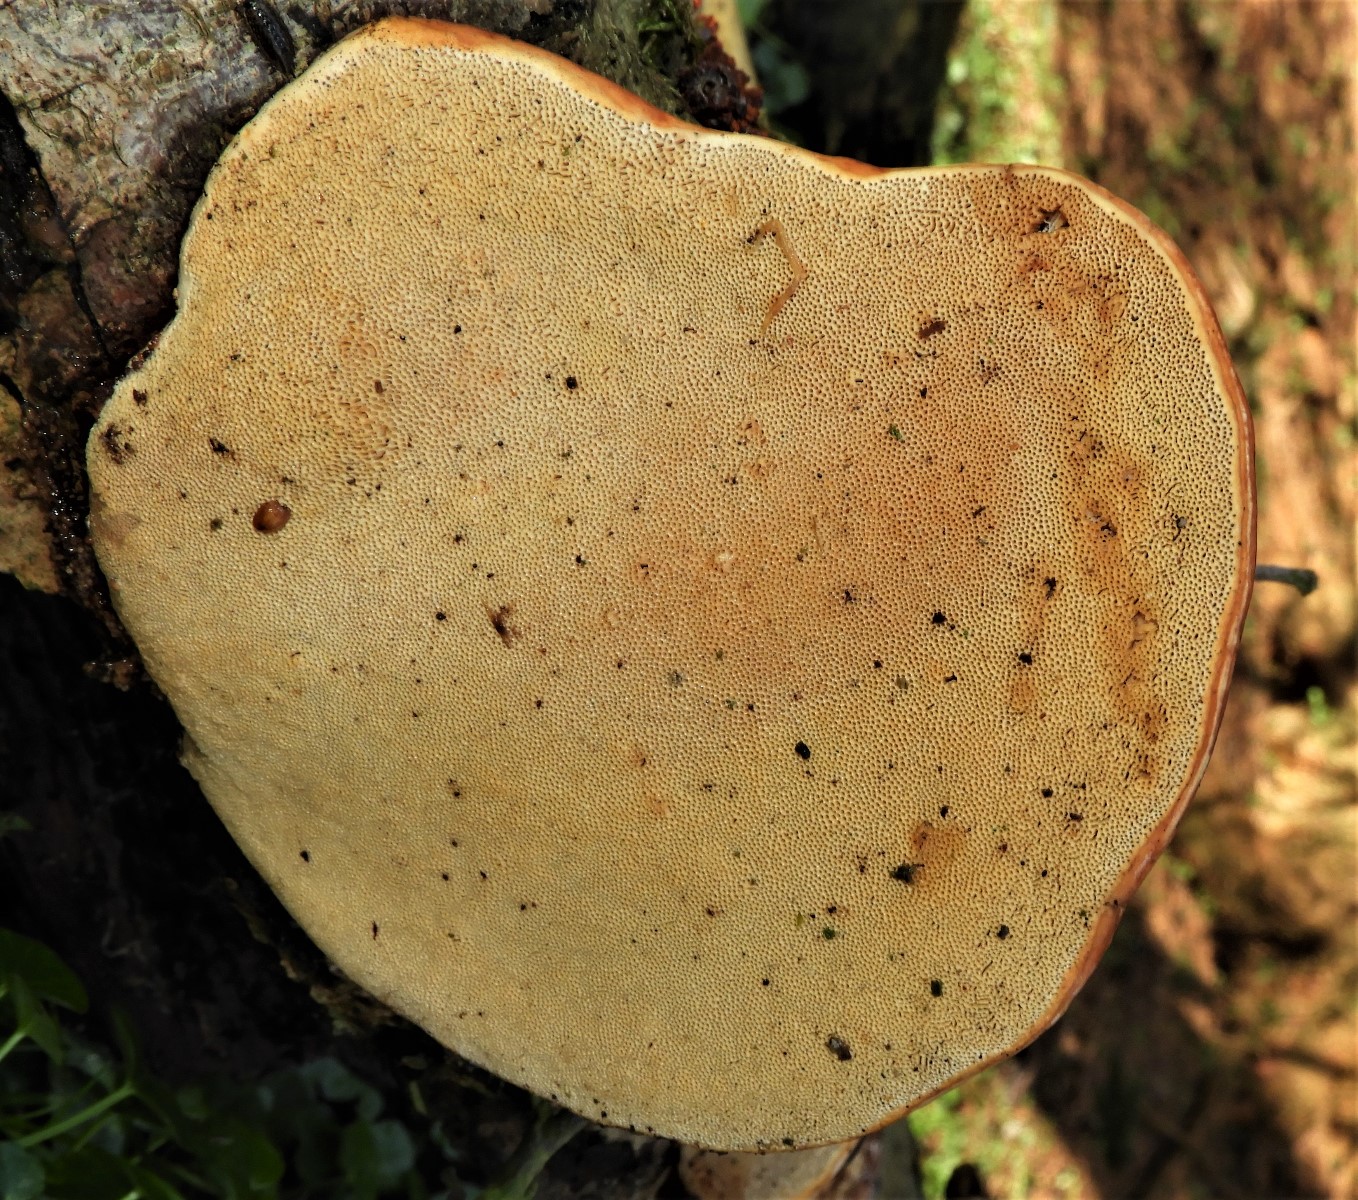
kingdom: Fungi
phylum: Basidiomycota
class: Agaricomycetes
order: Polyporales
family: Polyporaceae
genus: Fomes
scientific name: Fomes fomentarius
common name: tøndersvamp
